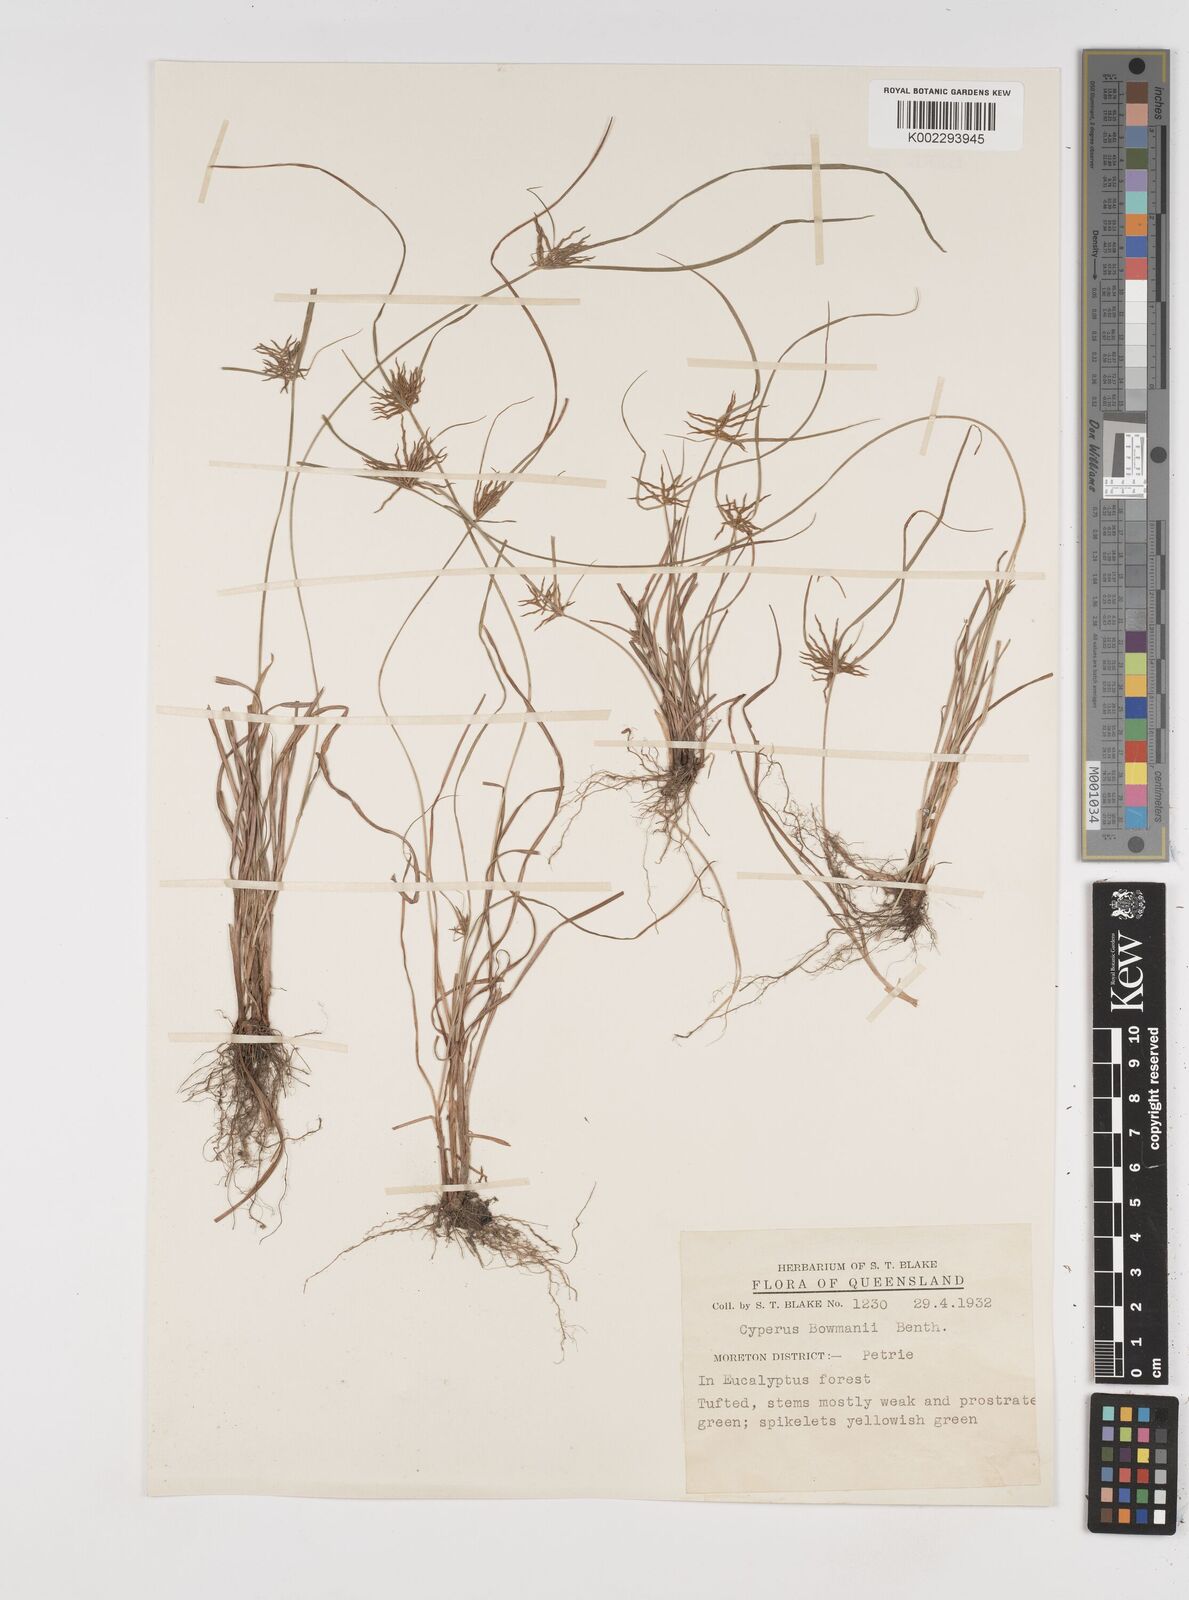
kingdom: Plantae
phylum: Tracheophyta
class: Liliopsida
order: Poales
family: Cyperaceae
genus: Cyperus
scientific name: Cyperus bowmanni
